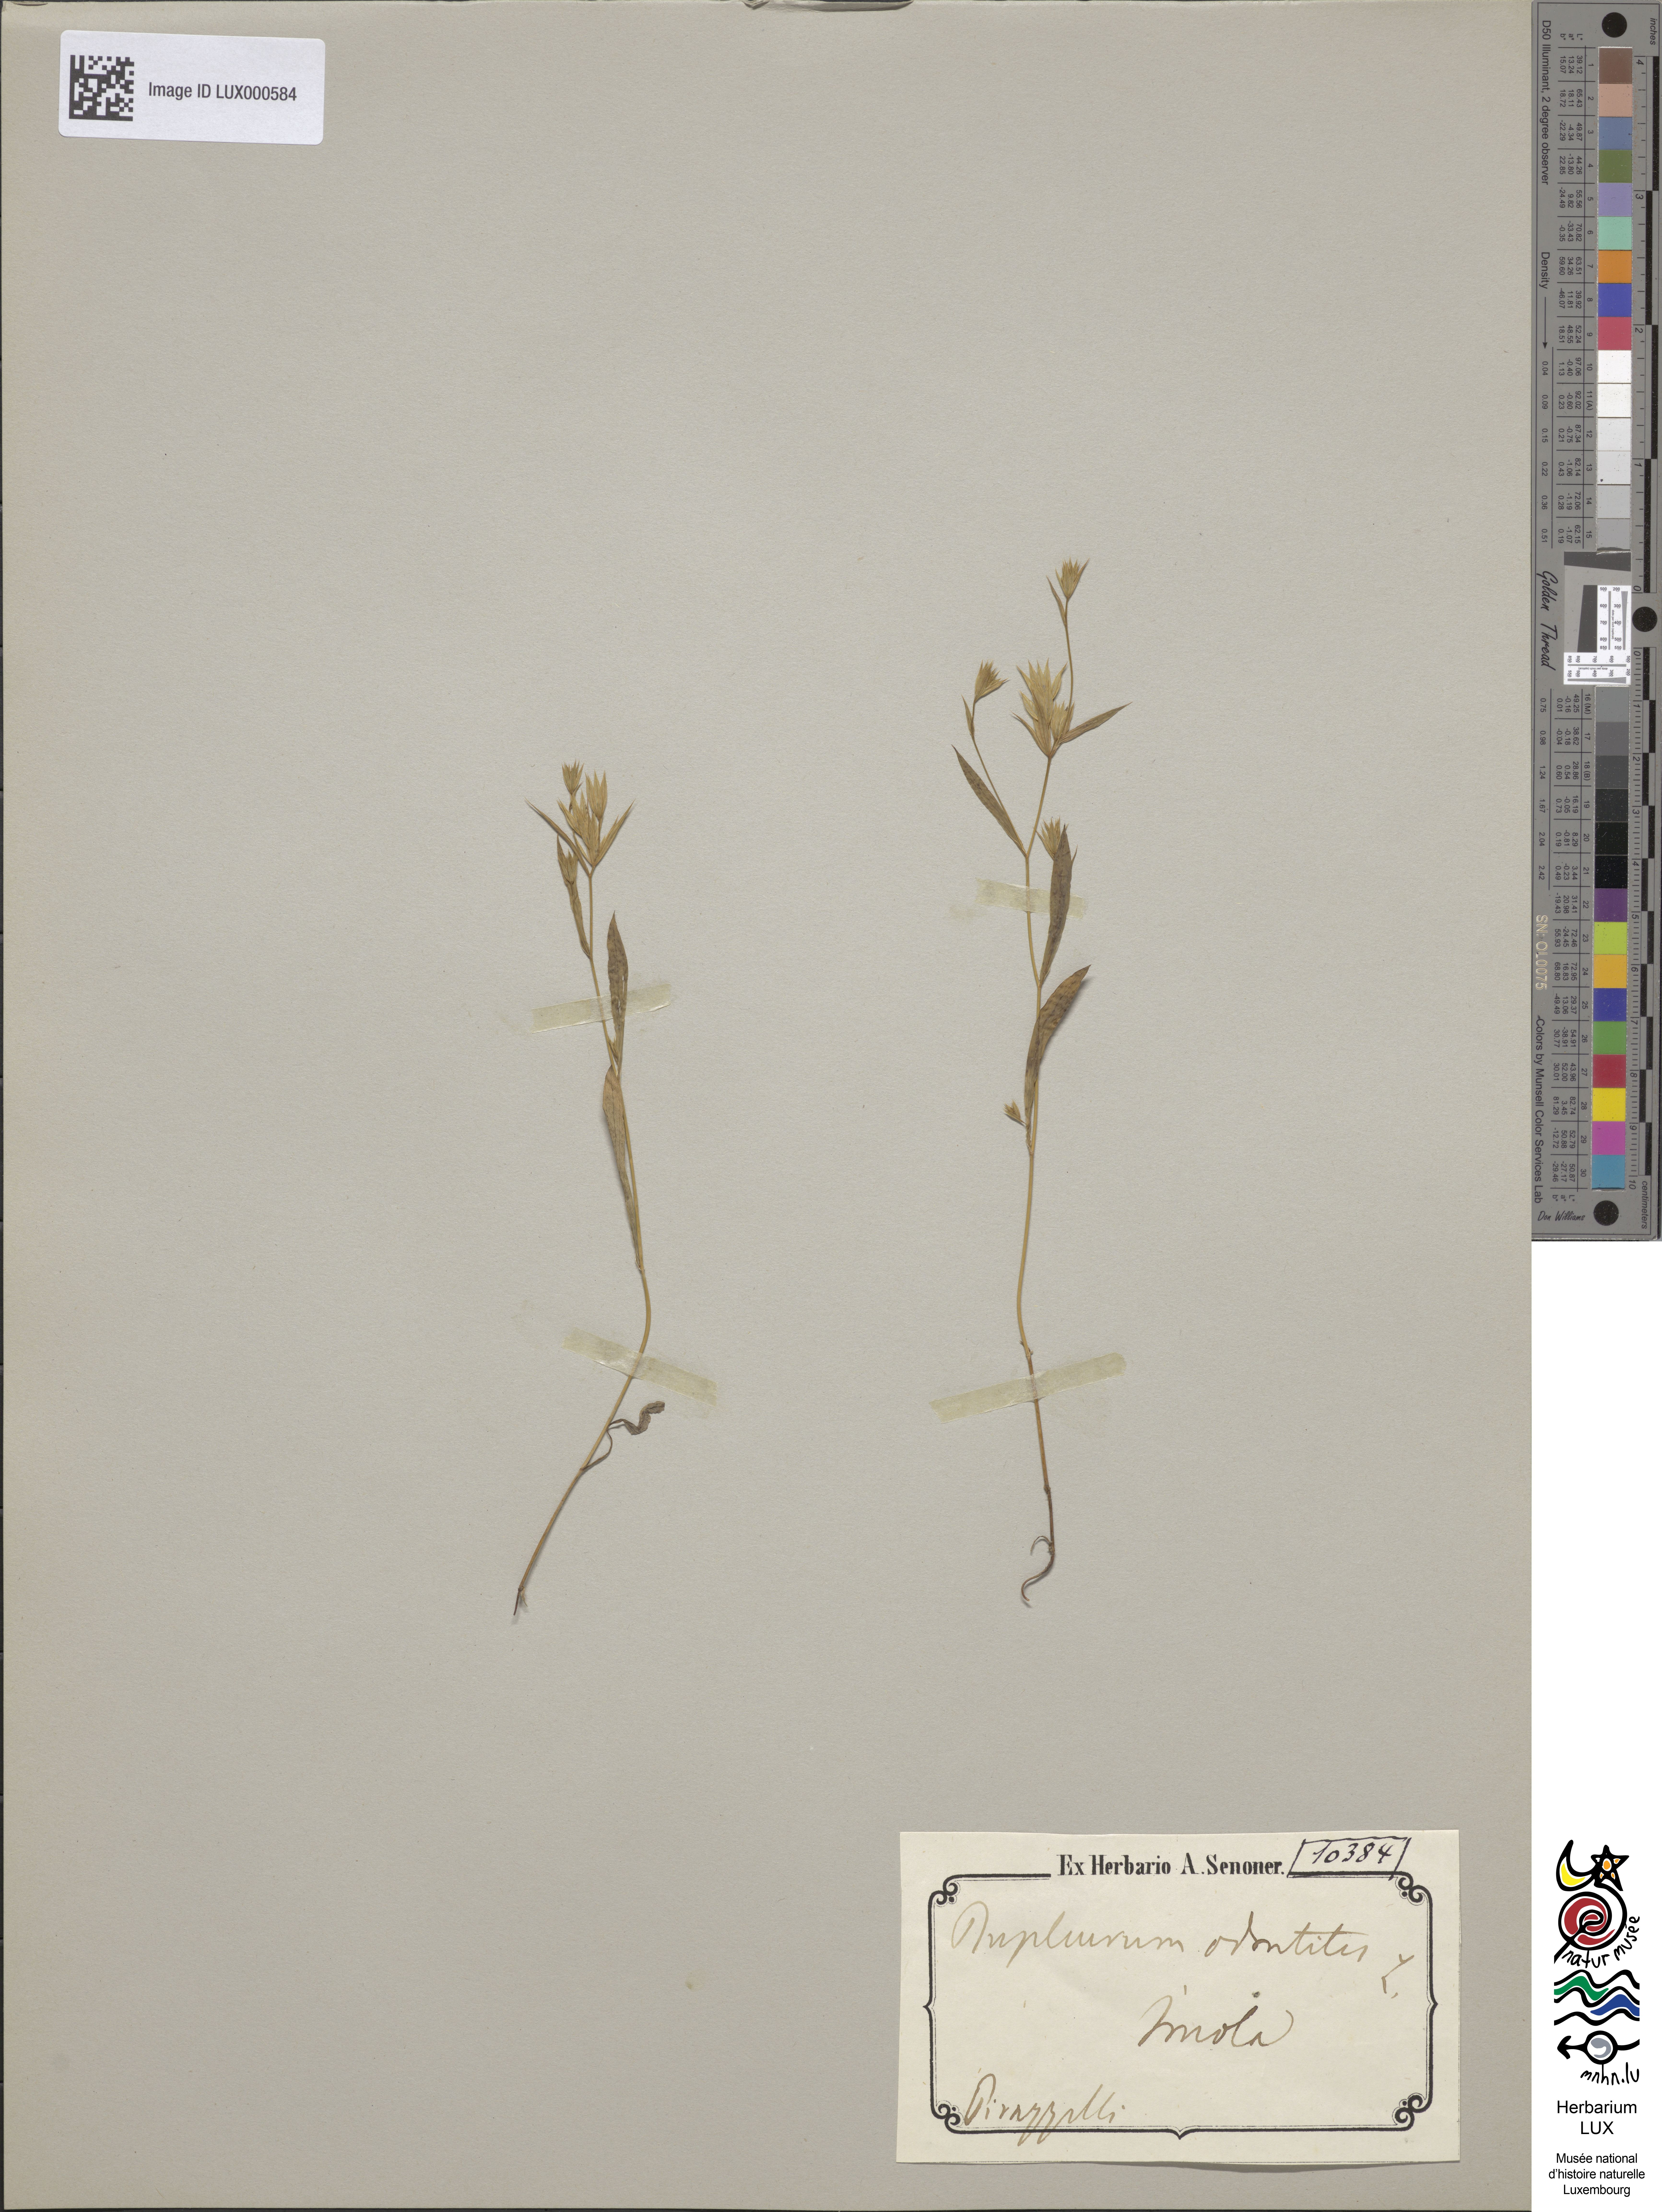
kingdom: Plantae
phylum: Tracheophyta
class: Magnoliopsida
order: Apiales
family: Apiaceae
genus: Bupleurum
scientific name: Bupleurum fontanesii
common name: Hare's-ear
